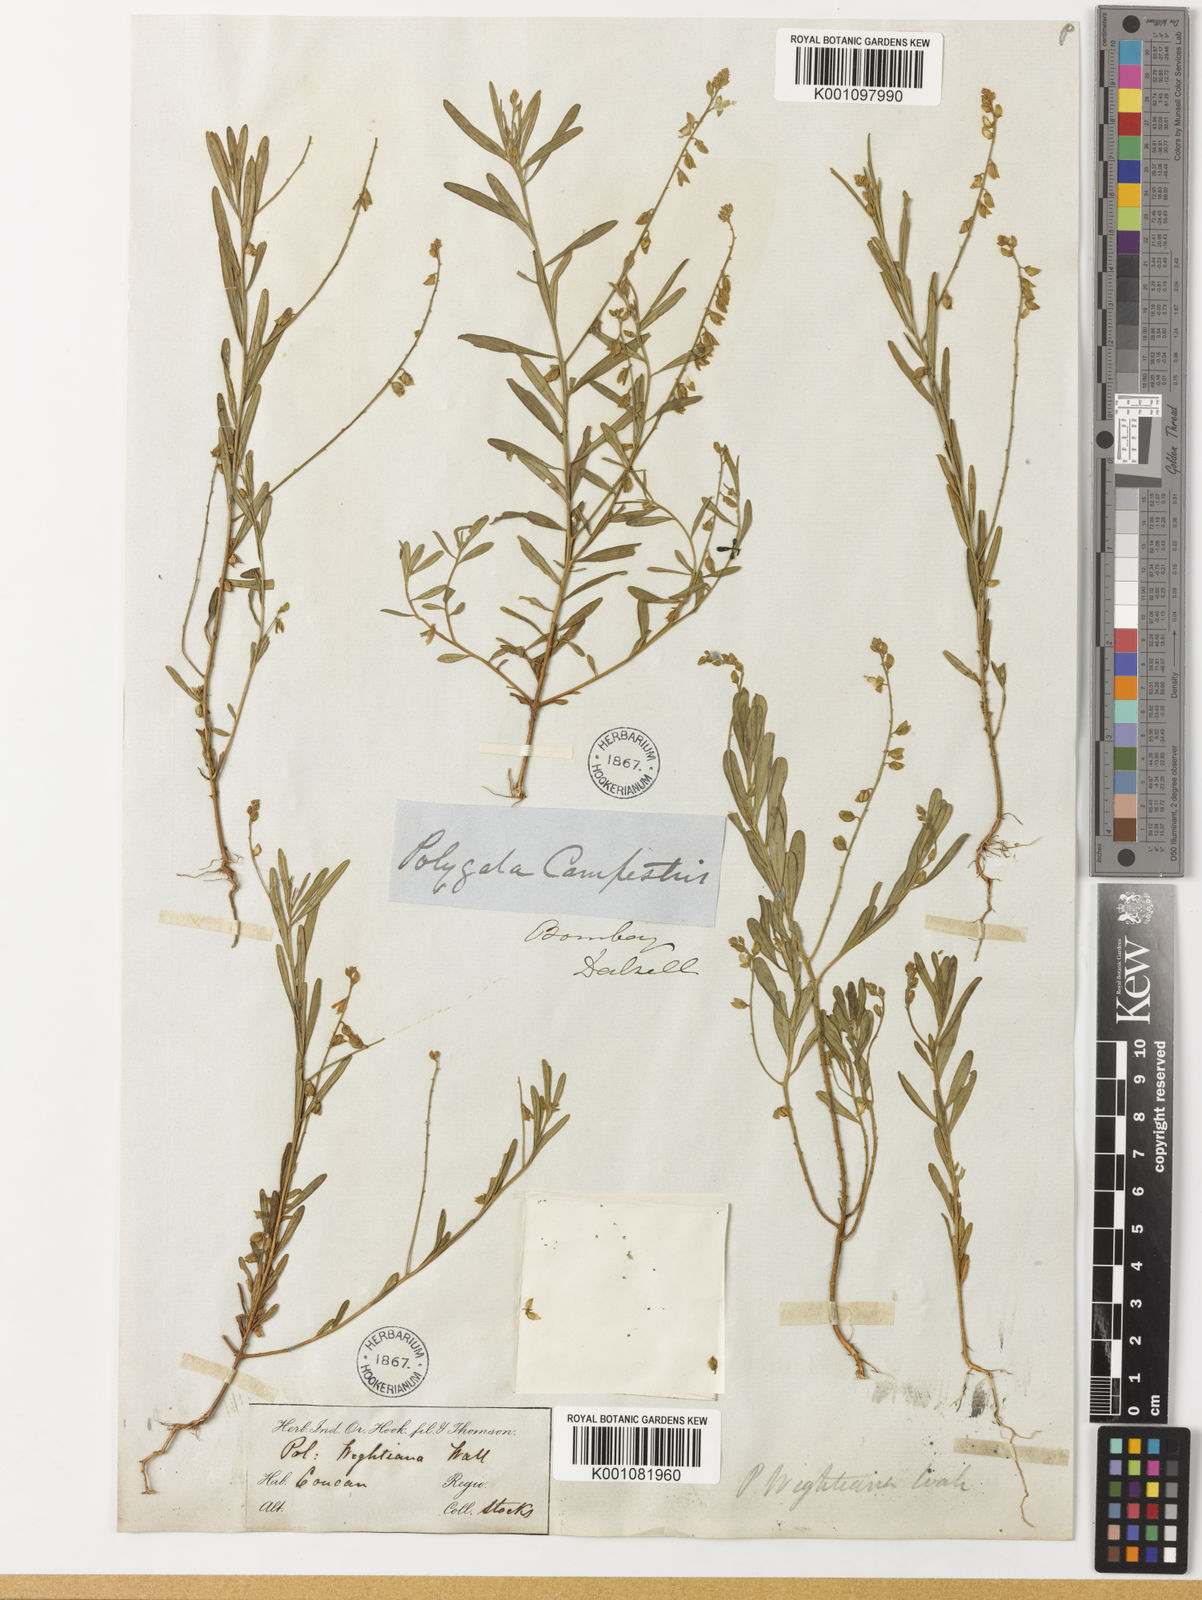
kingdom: Plantae
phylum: Tracheophyta
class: Magnoliopsida
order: Fabales
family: Polygalaceae
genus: Polygala
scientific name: Polygala wightiana
